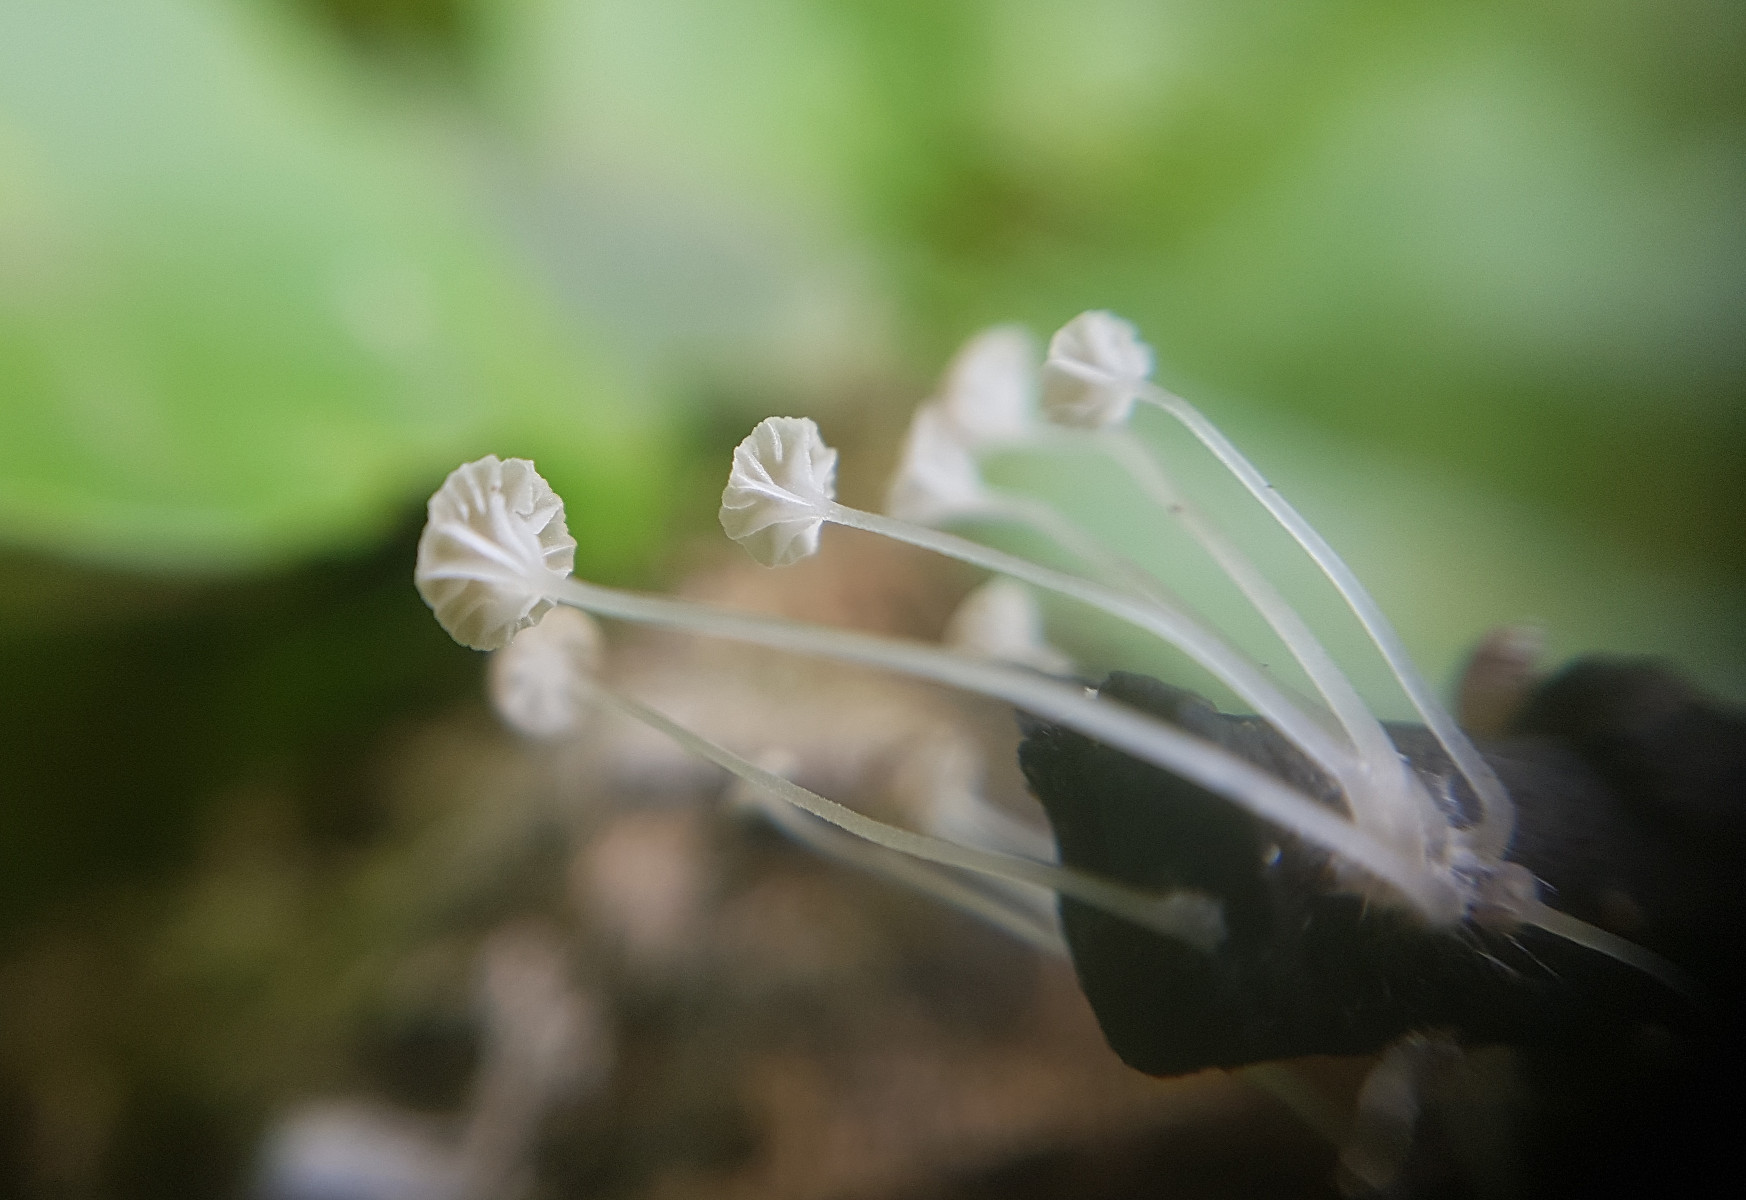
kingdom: Fungi
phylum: Basidiomycota
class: Agaricomycetes
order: Agaricales
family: Porotheleaceae
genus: Phloeomana
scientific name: Phloeomana speirea
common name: kvist-huesvamp
